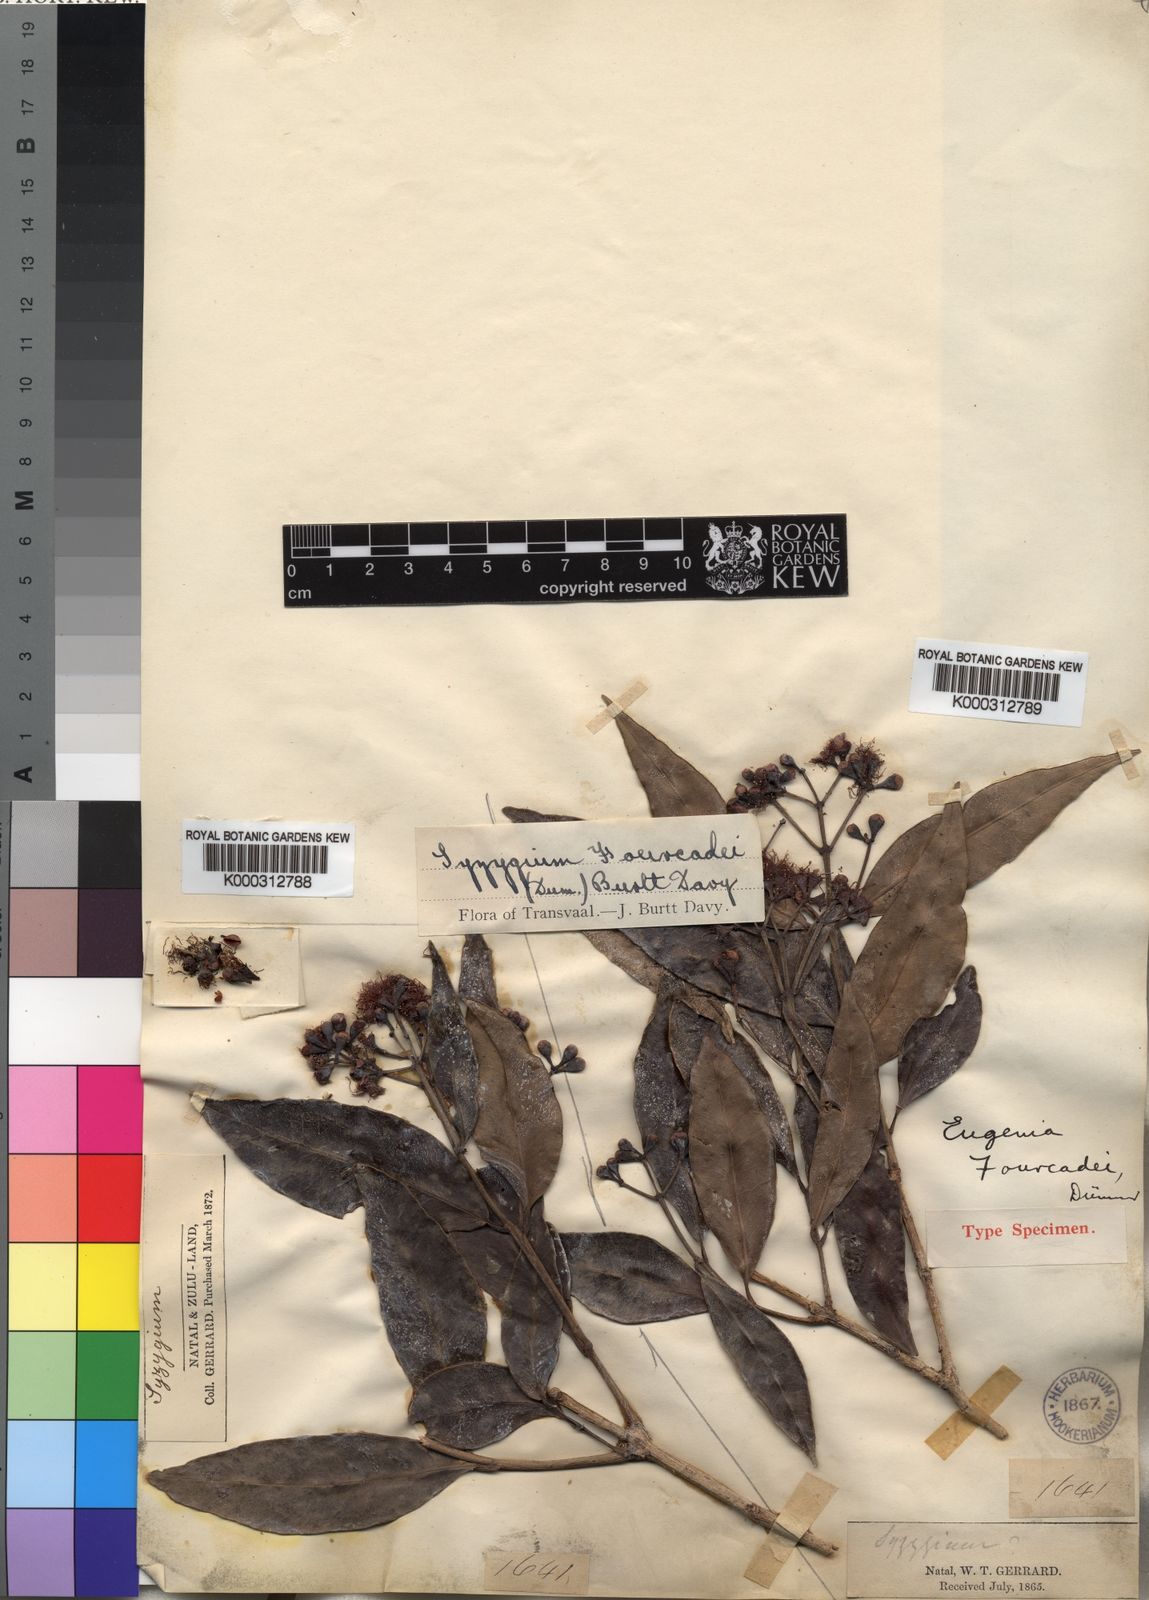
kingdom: Plantae
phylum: Tracheophyta
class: Magnoliopsida
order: Myrtales
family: Myrtaceae
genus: Syzygium
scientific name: Syzygium guineense
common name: Water-pear
